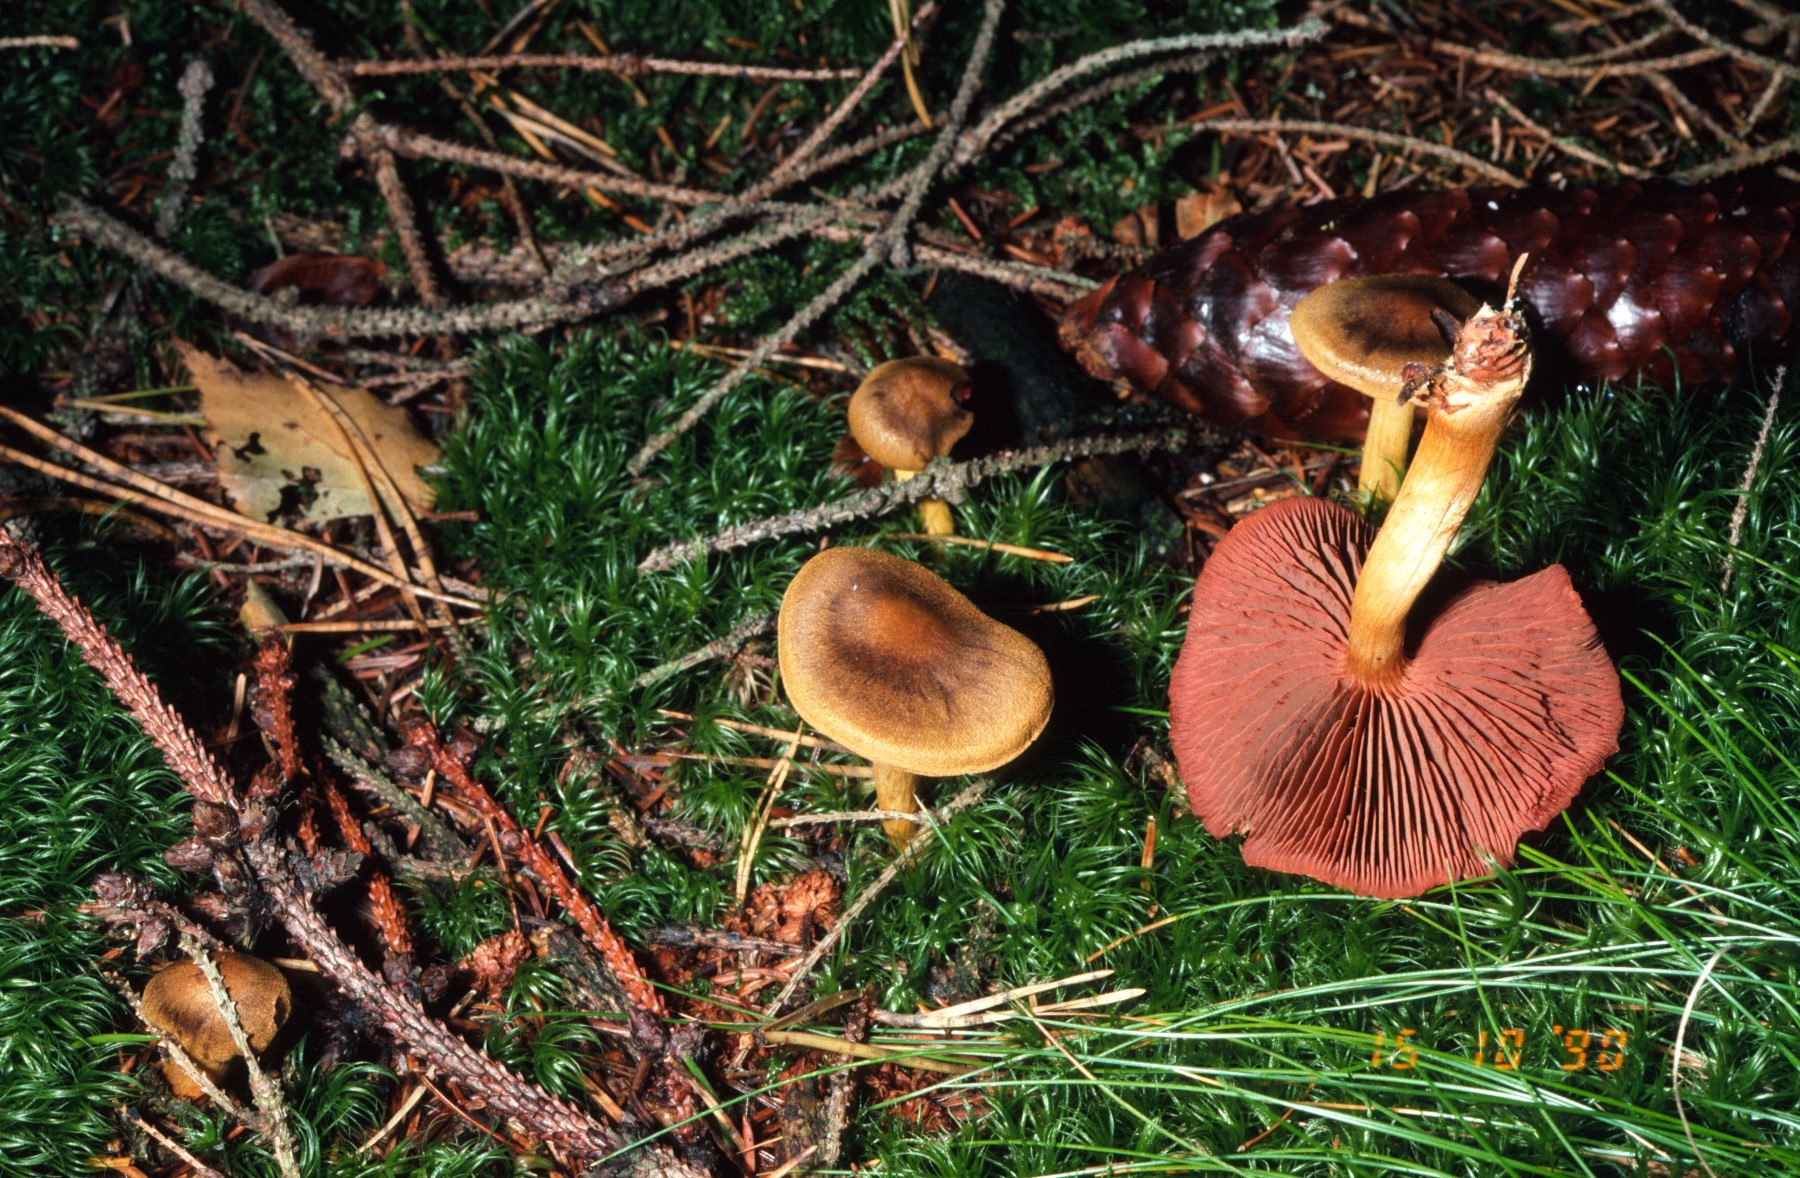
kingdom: Fungi
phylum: Basidiomycota
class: Agaricomycetes
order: Agaricales
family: Cortinariaceae
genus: Cortinarius
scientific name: Cortinarius
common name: cinnoberbladet slørhat
